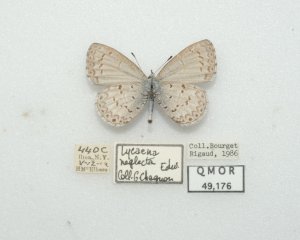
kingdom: Animalia
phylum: Arthropoda
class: Insecta
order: Lepidoptera
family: Lycaenidae
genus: Celastrina
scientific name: Celastrina ladon
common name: Spring Azure
